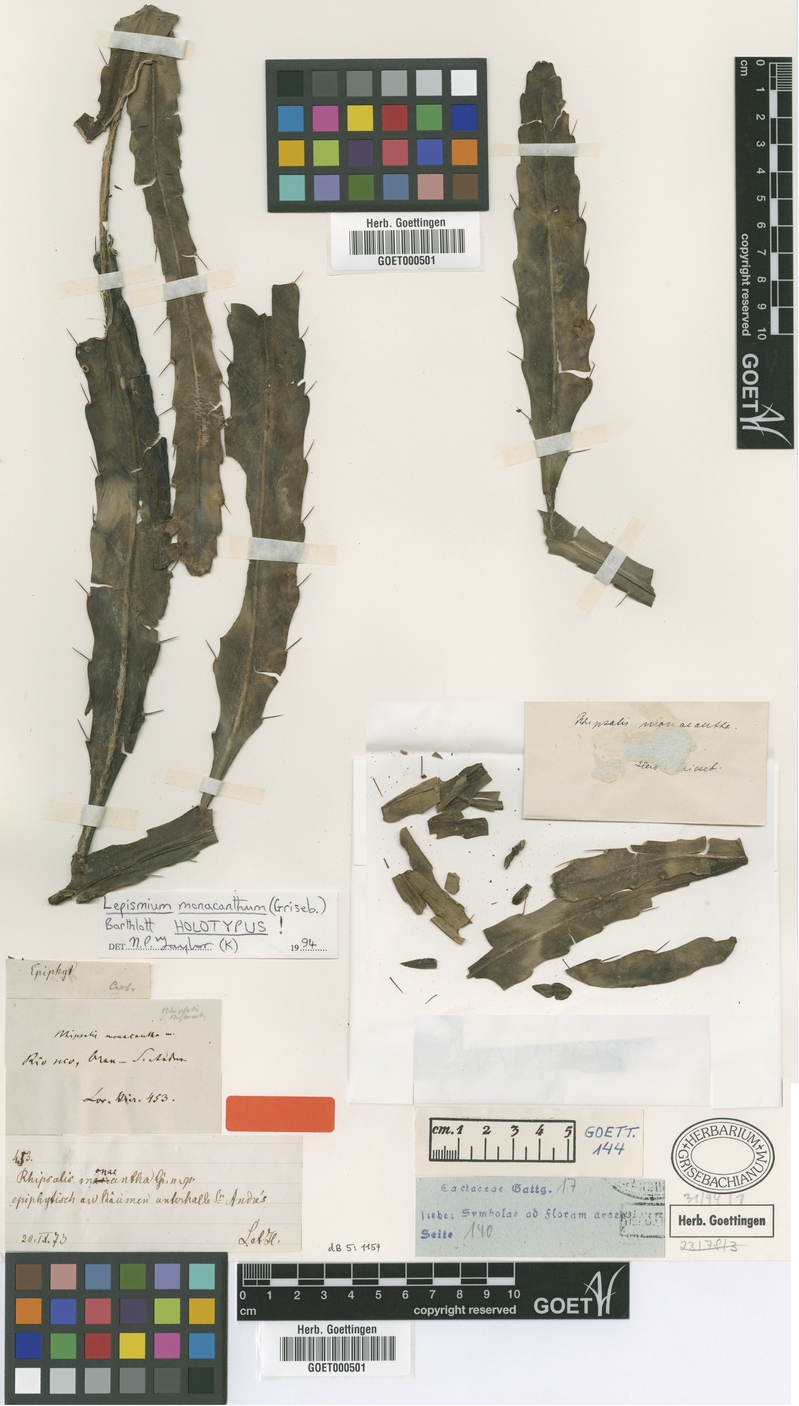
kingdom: Plantae
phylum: Tracheophyta
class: Magnoliopsida
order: Caryophyllales
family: Cactaceae
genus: Pfeiffera
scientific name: Pfeiffera monacantha
